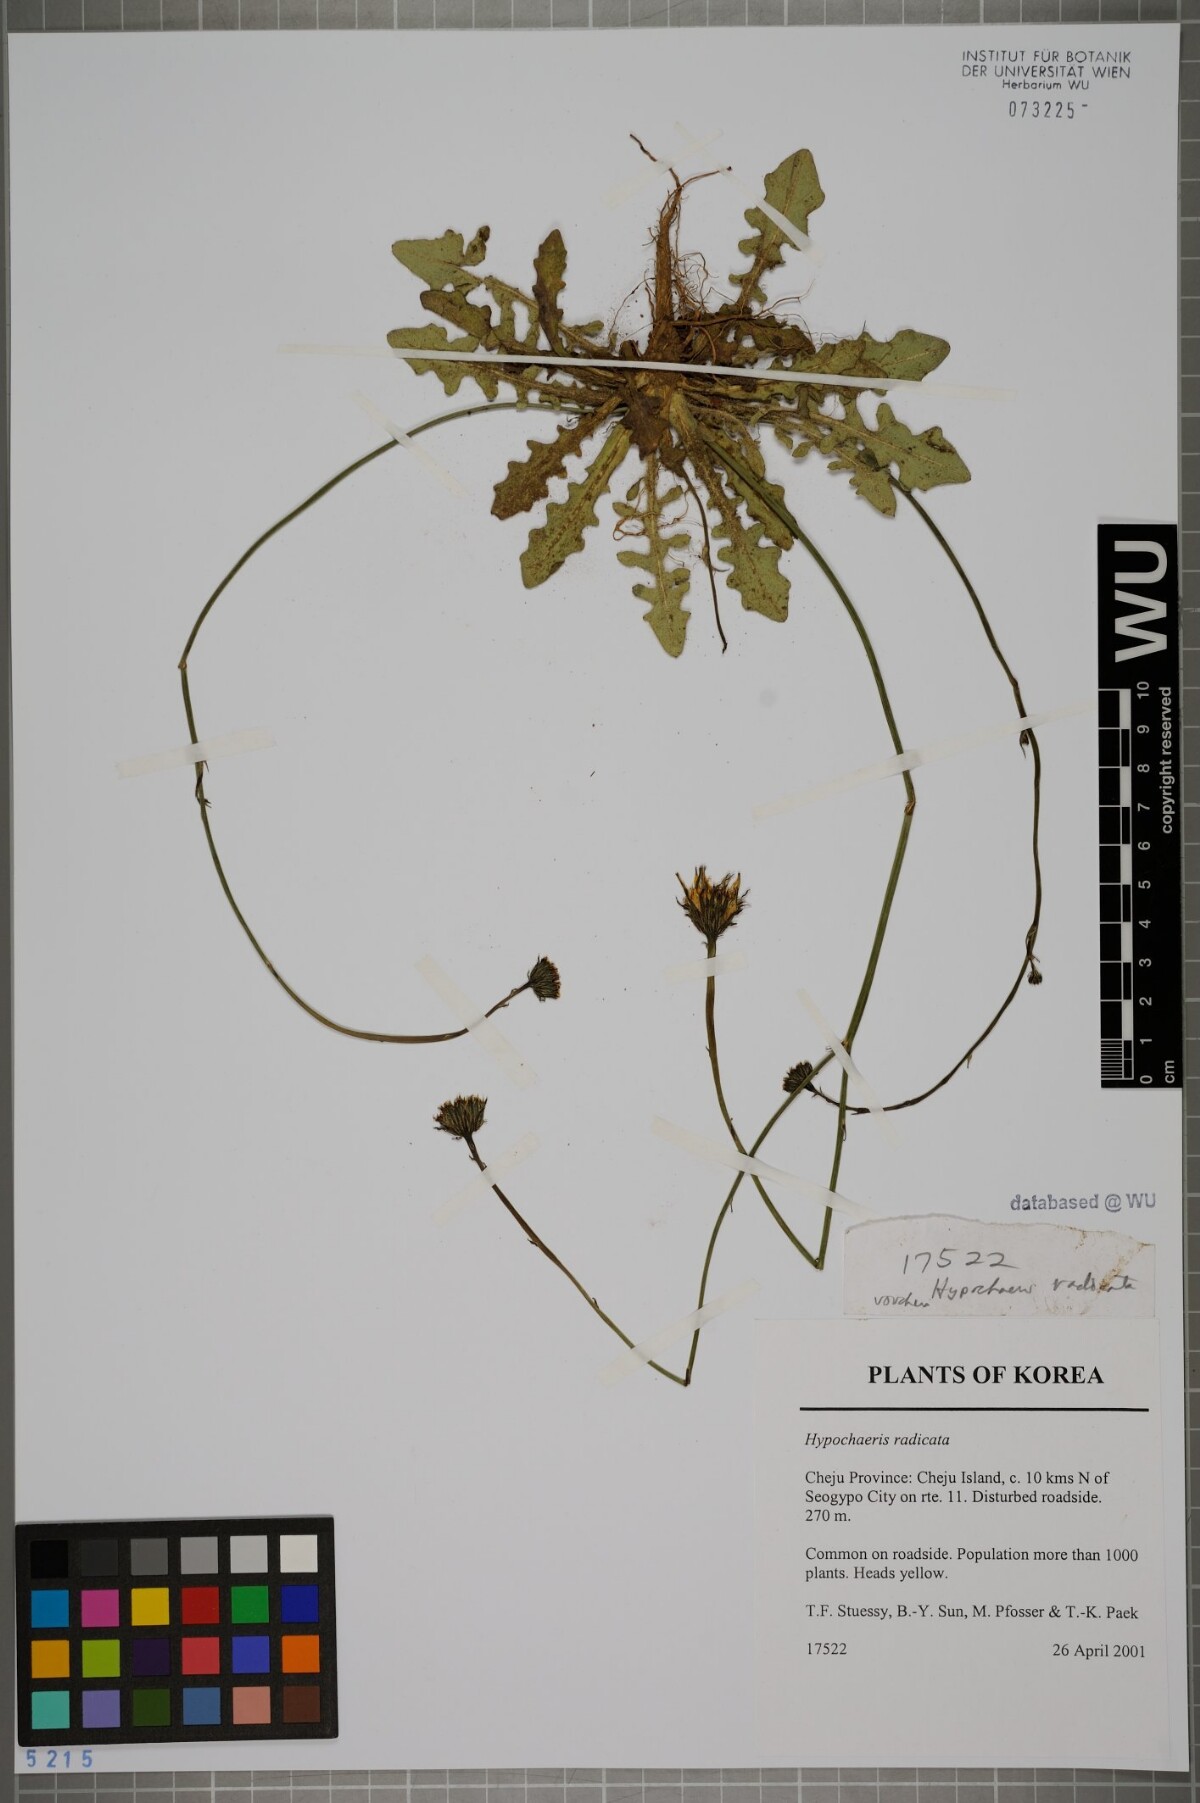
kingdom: Plantae
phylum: Tracheophyta
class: Magnoliopsida
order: Asterales
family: Asteraceae
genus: Hypochaeris
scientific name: Hypochaeris radicata
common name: Flatweed
